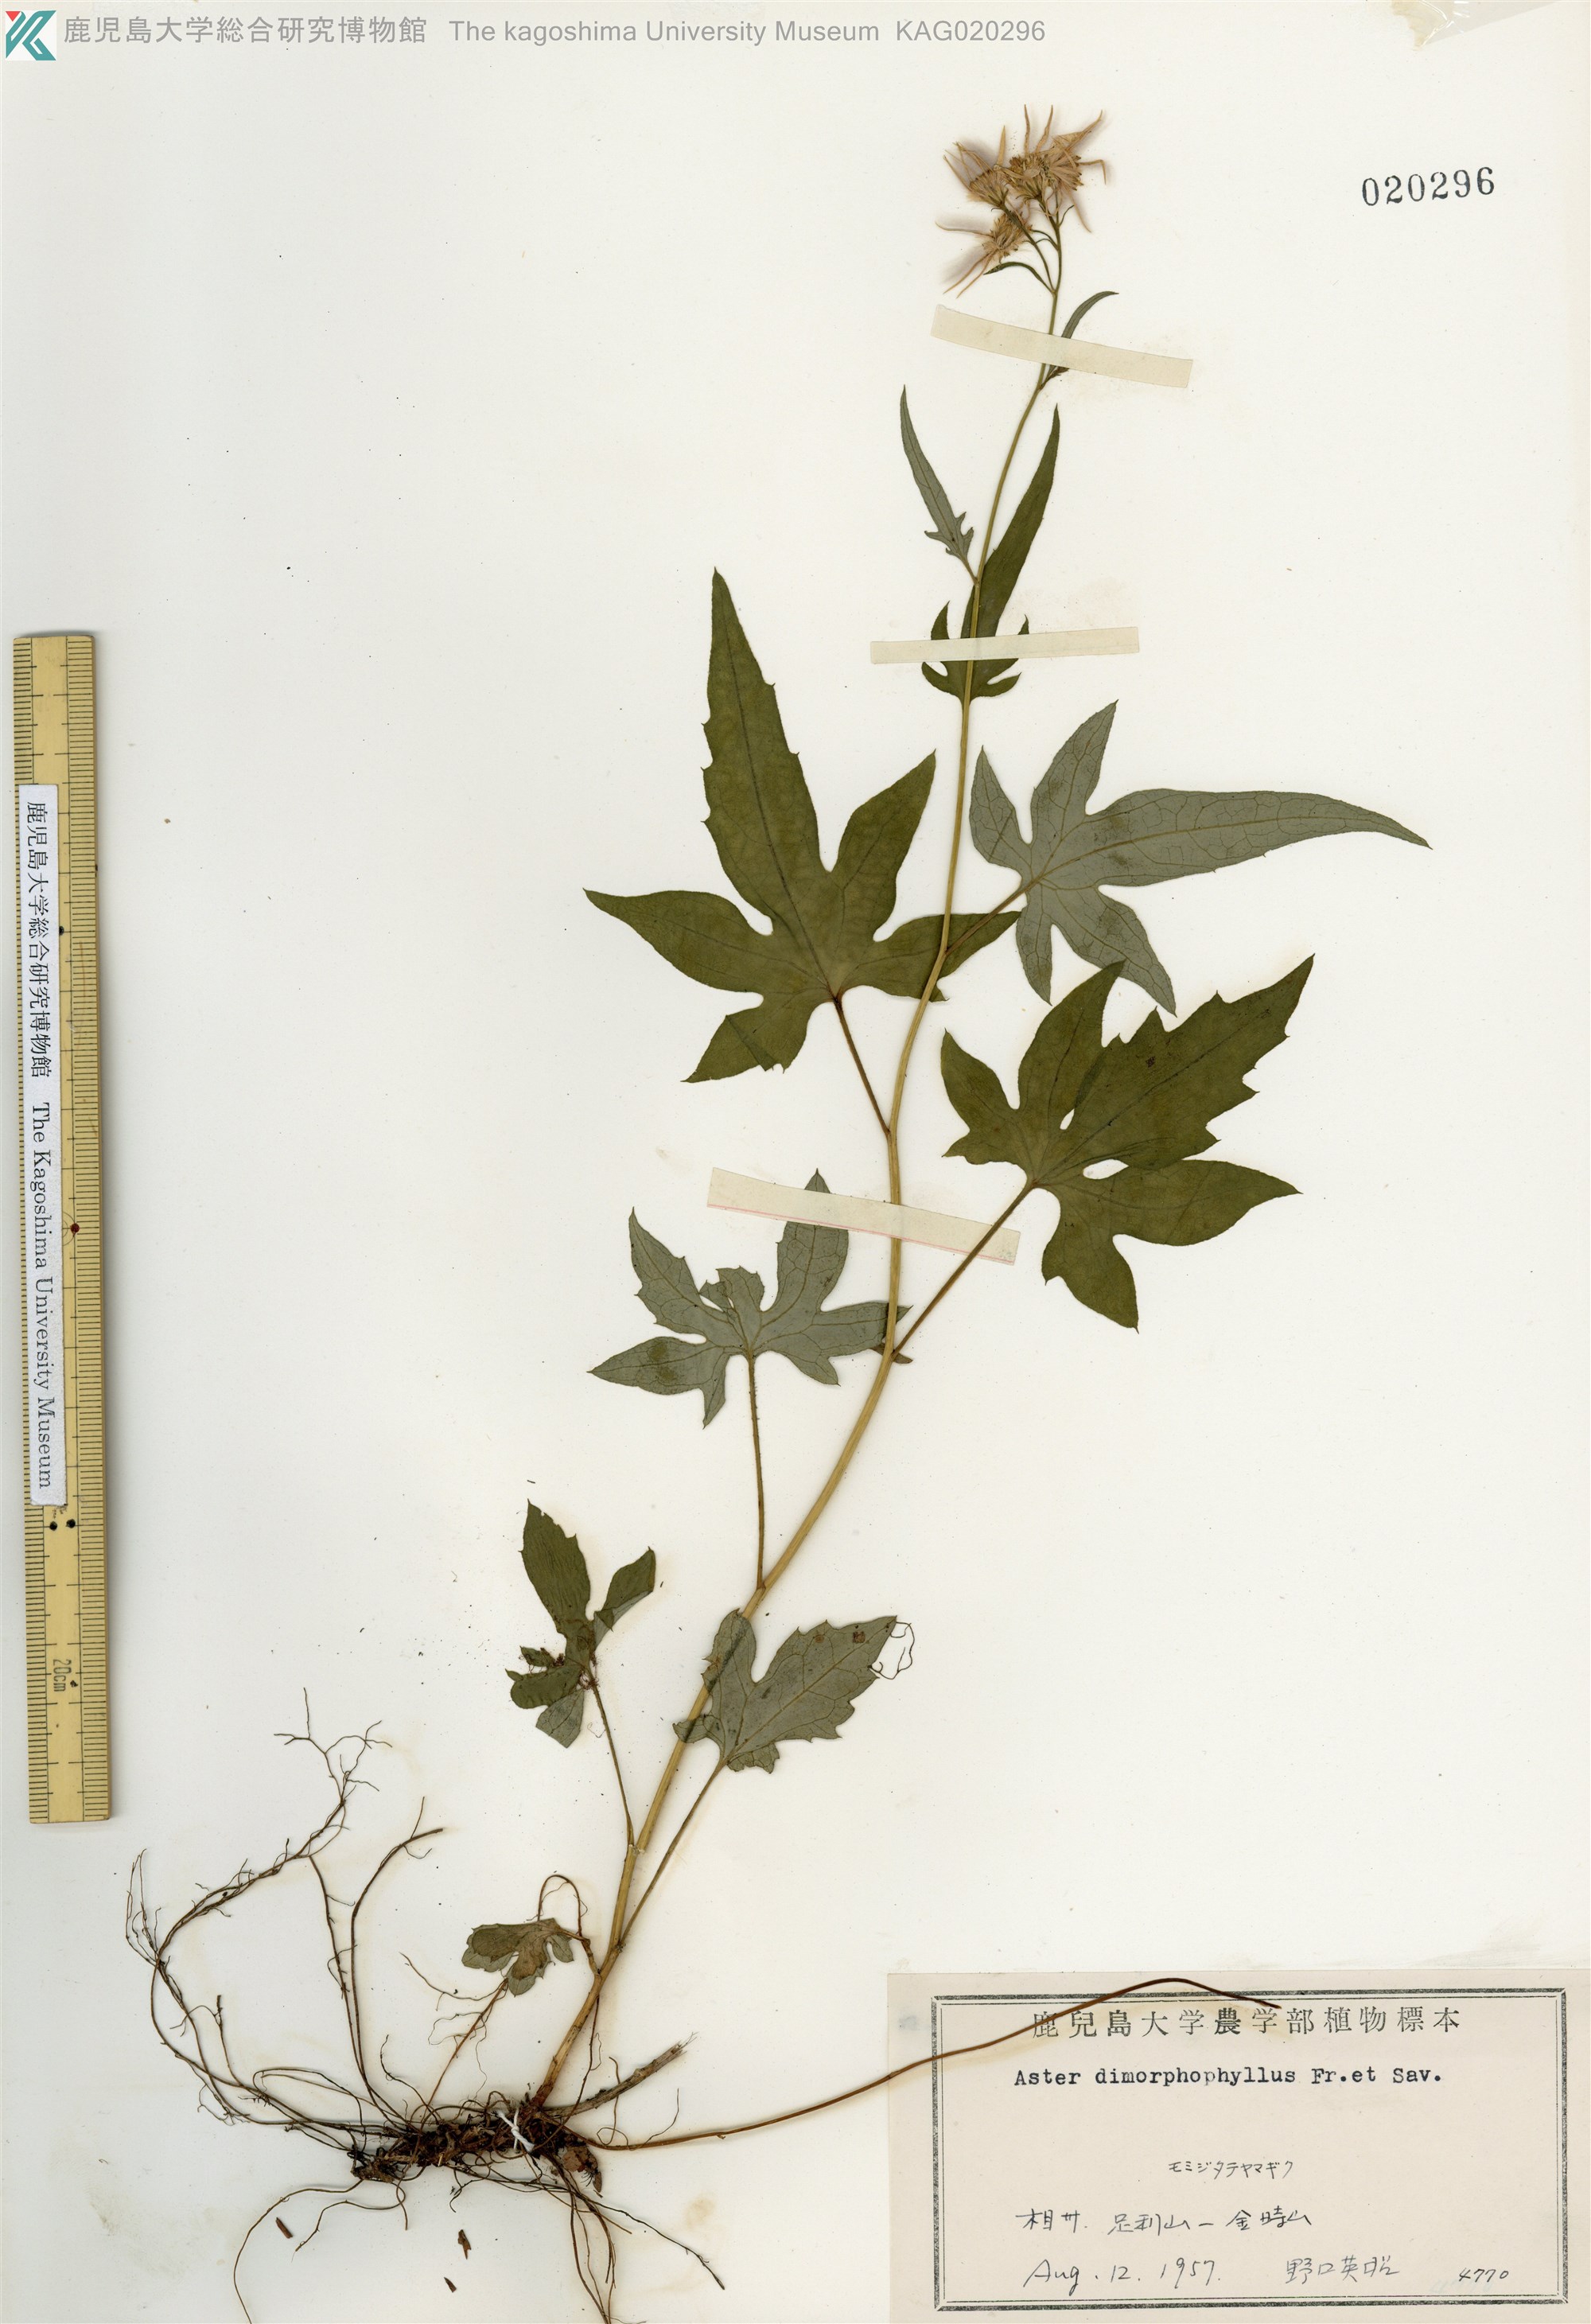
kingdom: Plantae
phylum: Tracheophyta
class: Magnoliopsida
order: Asterales
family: Asteraceae
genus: Cardiagyris
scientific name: Cardiagyris dimorphophylla
